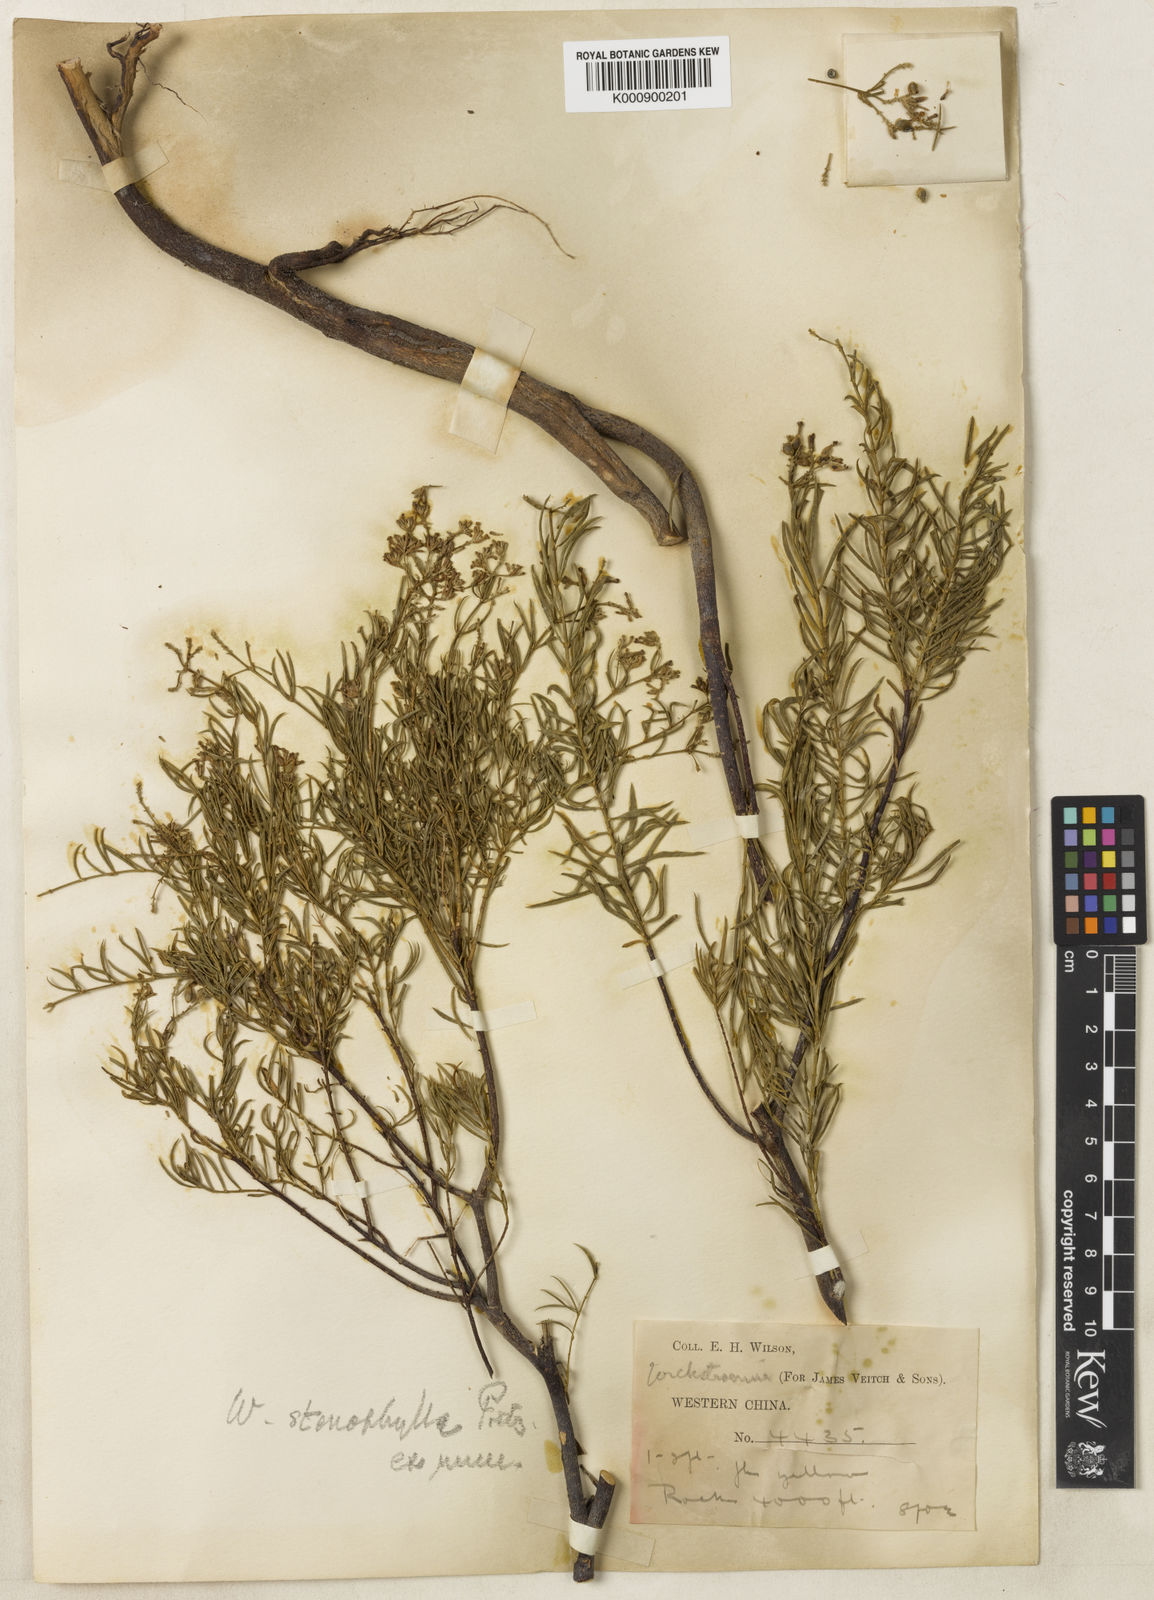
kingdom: Plantae
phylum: Tracheophyta
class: Magnoliopsida
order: Malvales
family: Thymelaeaceae
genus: Wikstroemia
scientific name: Wikstroemia stenophylla
